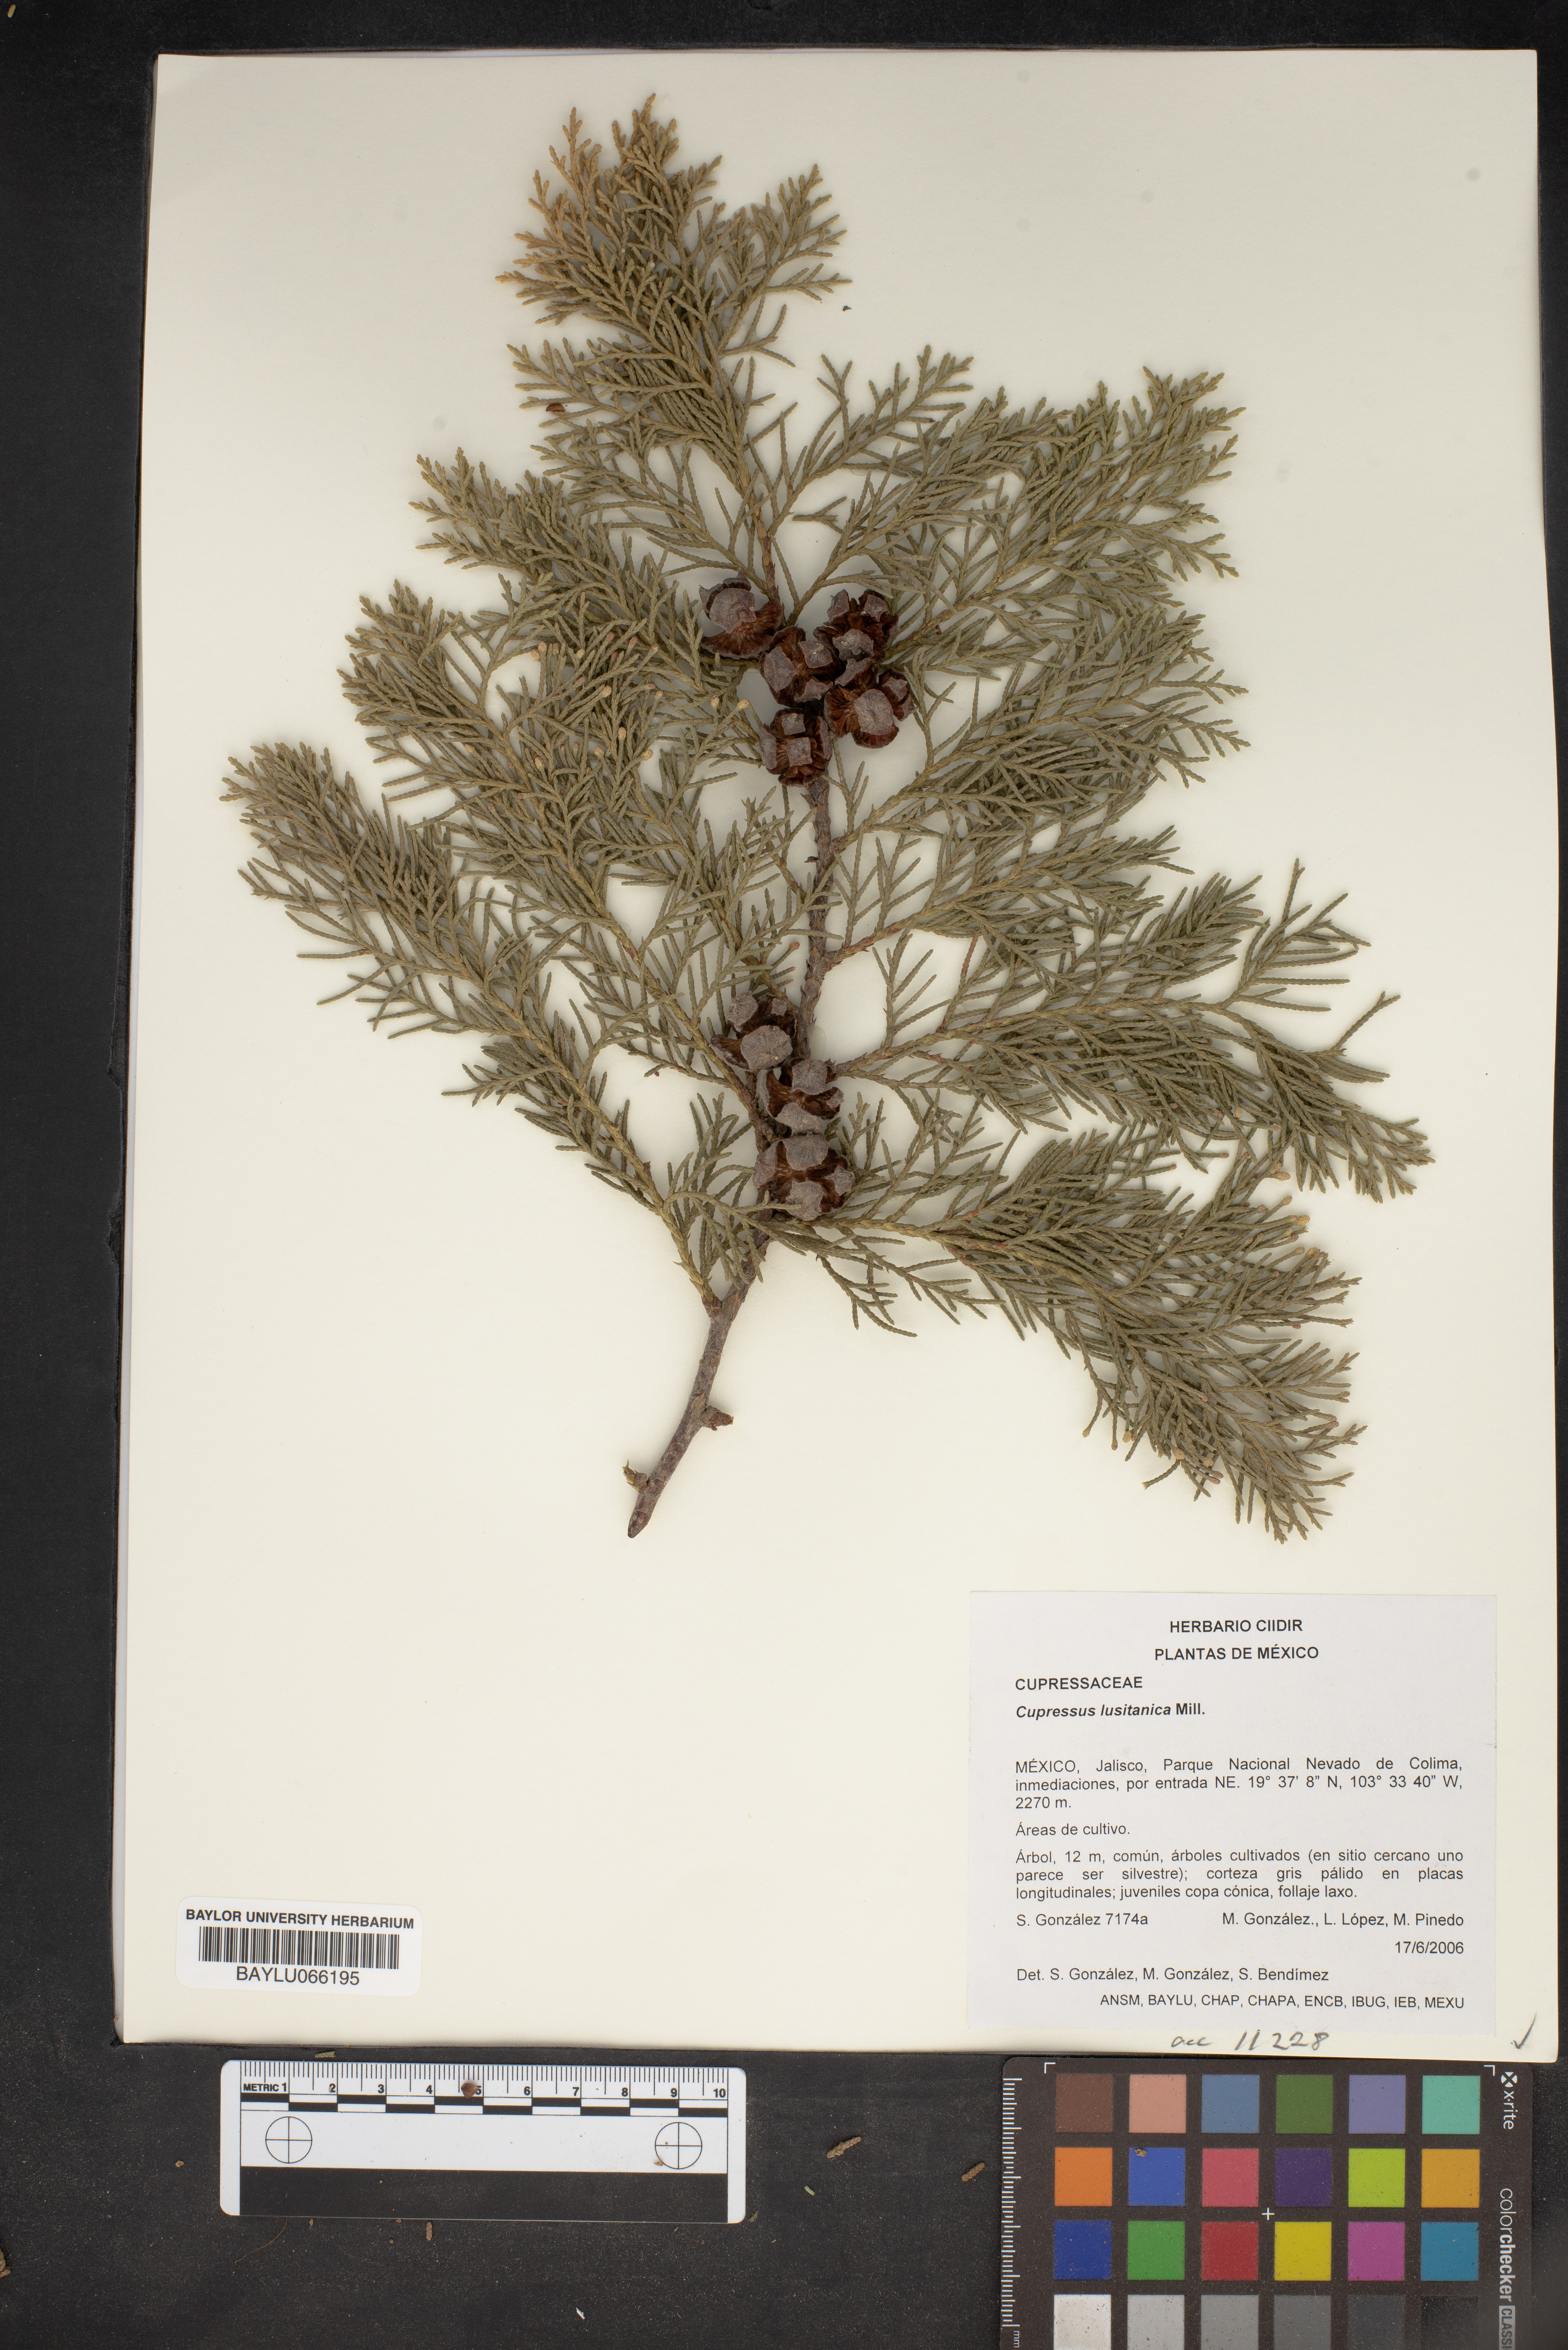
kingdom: Plantae
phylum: Tracheophyta
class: Pinopsida
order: Pinales
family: Cupressaceae
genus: Cupressus
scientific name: Cupressus lusitanica
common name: Mexican cypress
